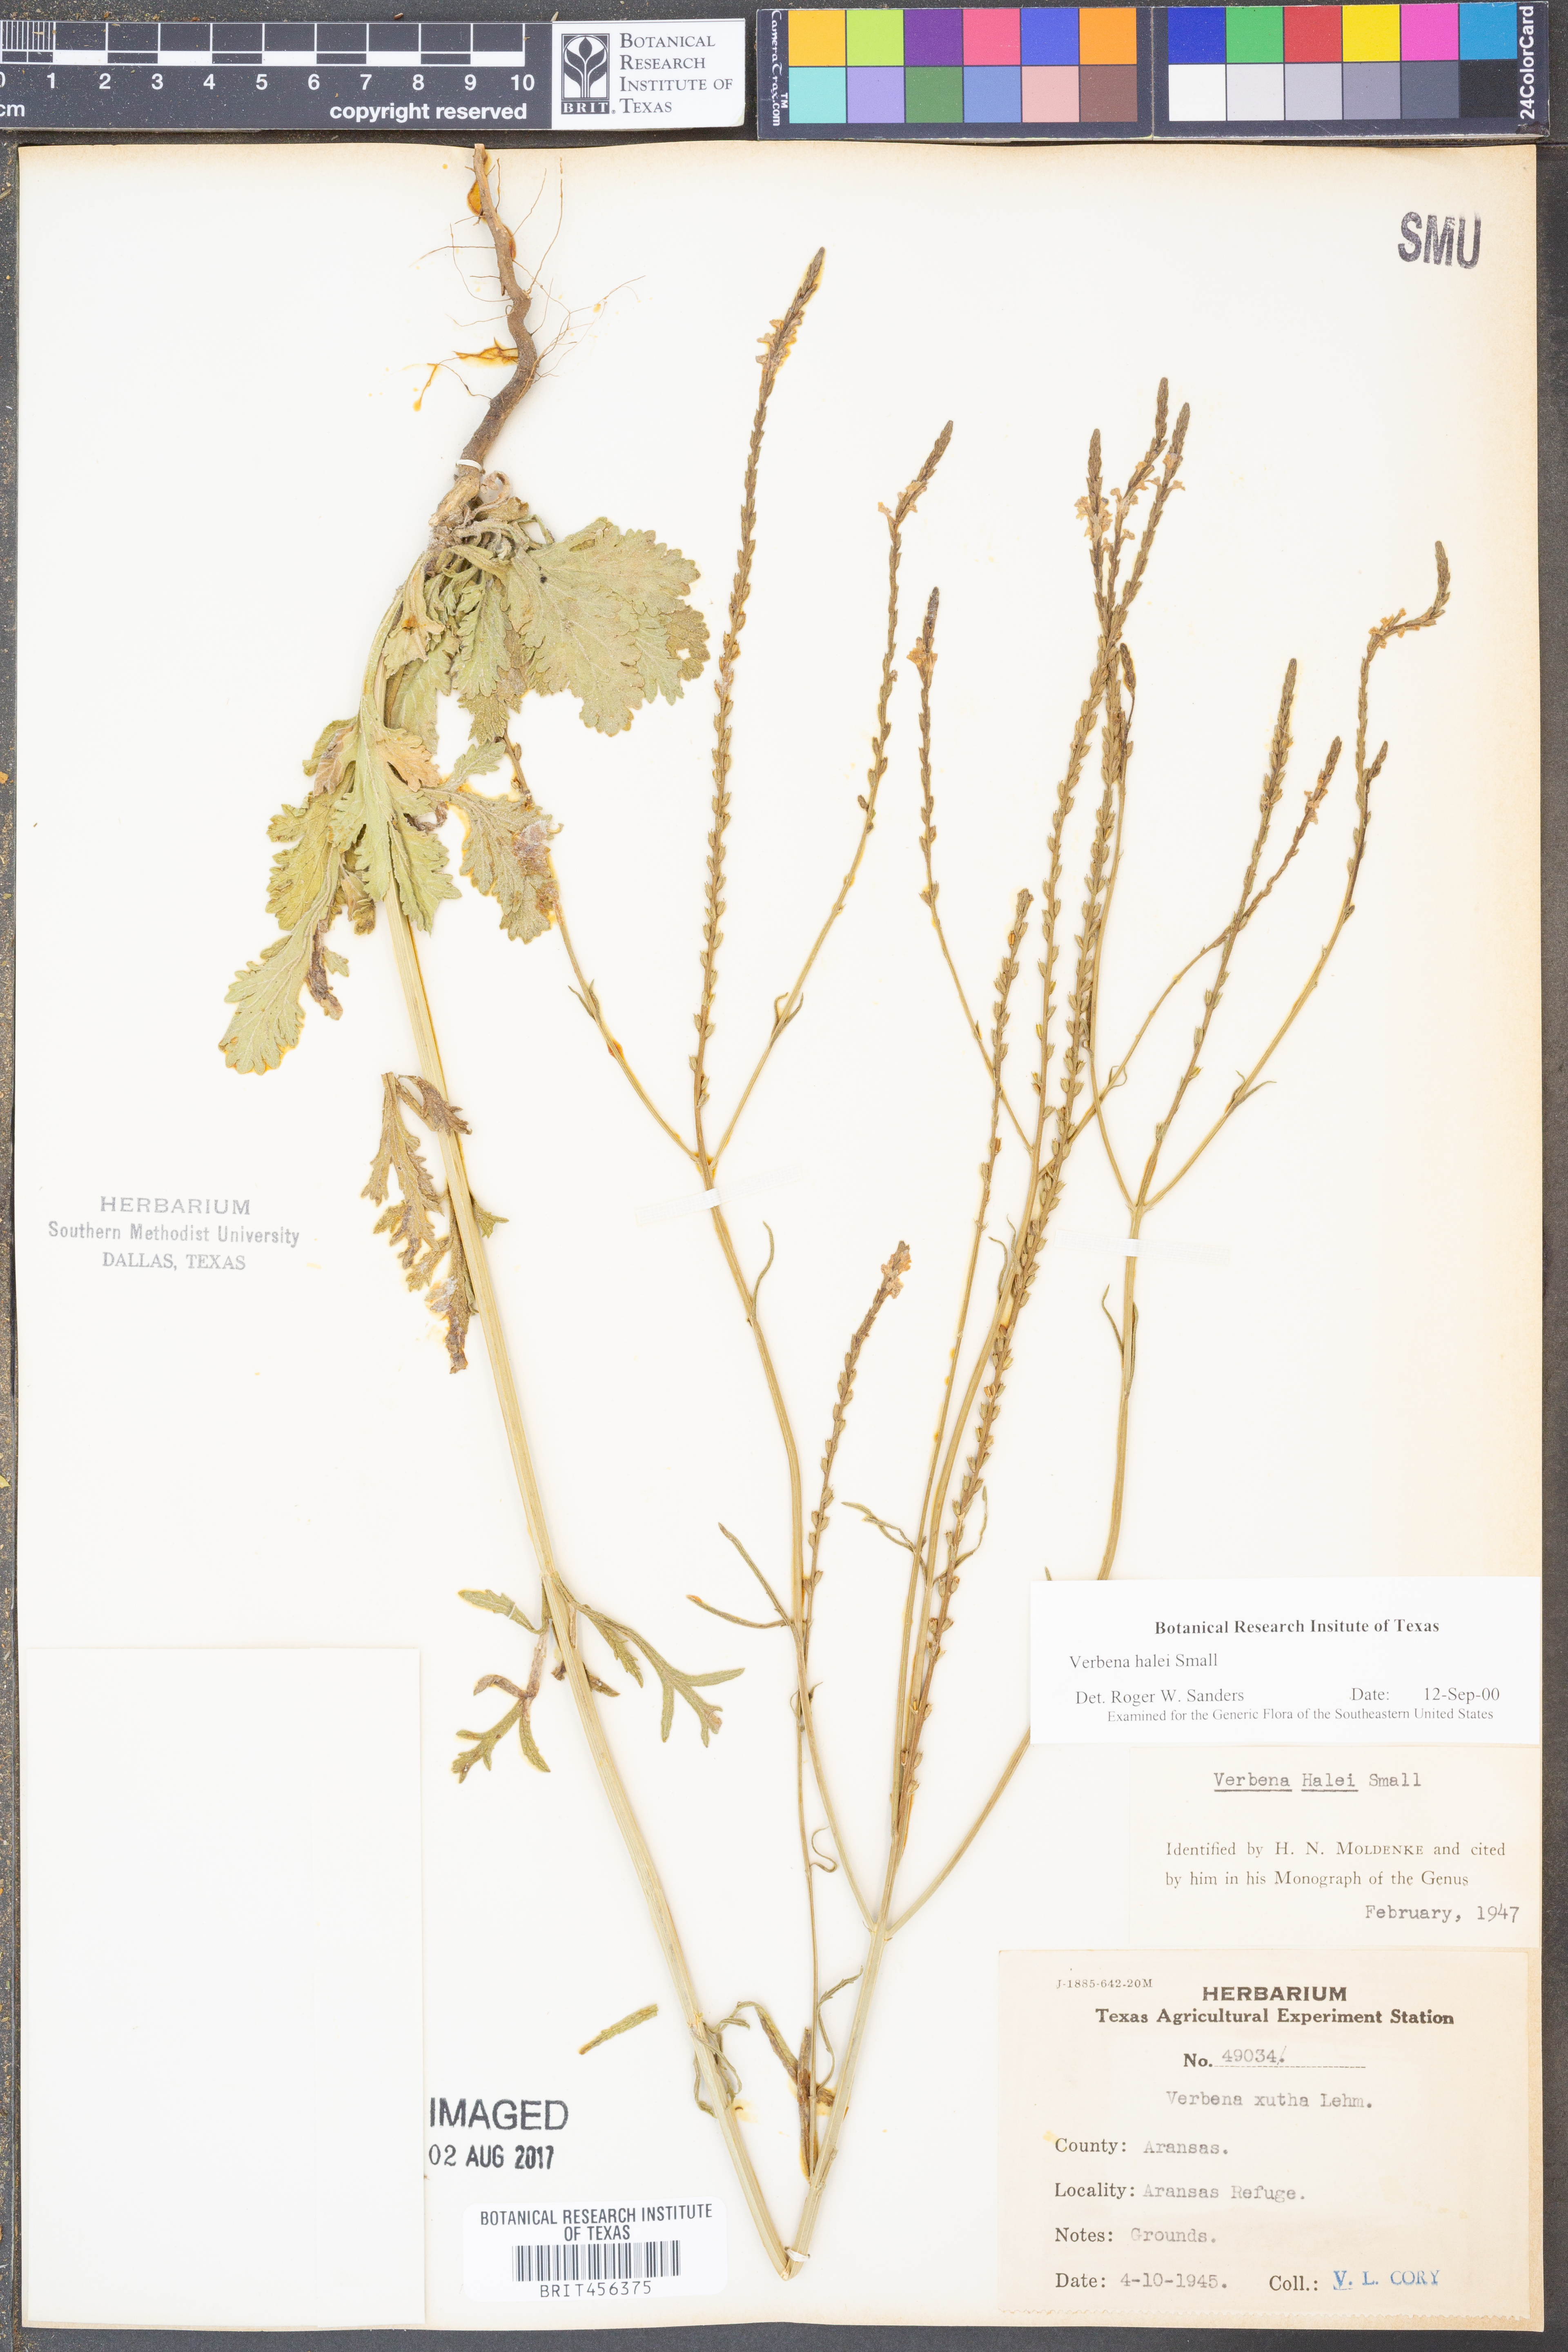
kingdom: Plantae
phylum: Tracheophyta
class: Magnoliopsida
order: Lamiales
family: Verbenaceae
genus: Verbena
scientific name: Verbena halei
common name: Texas vervain
